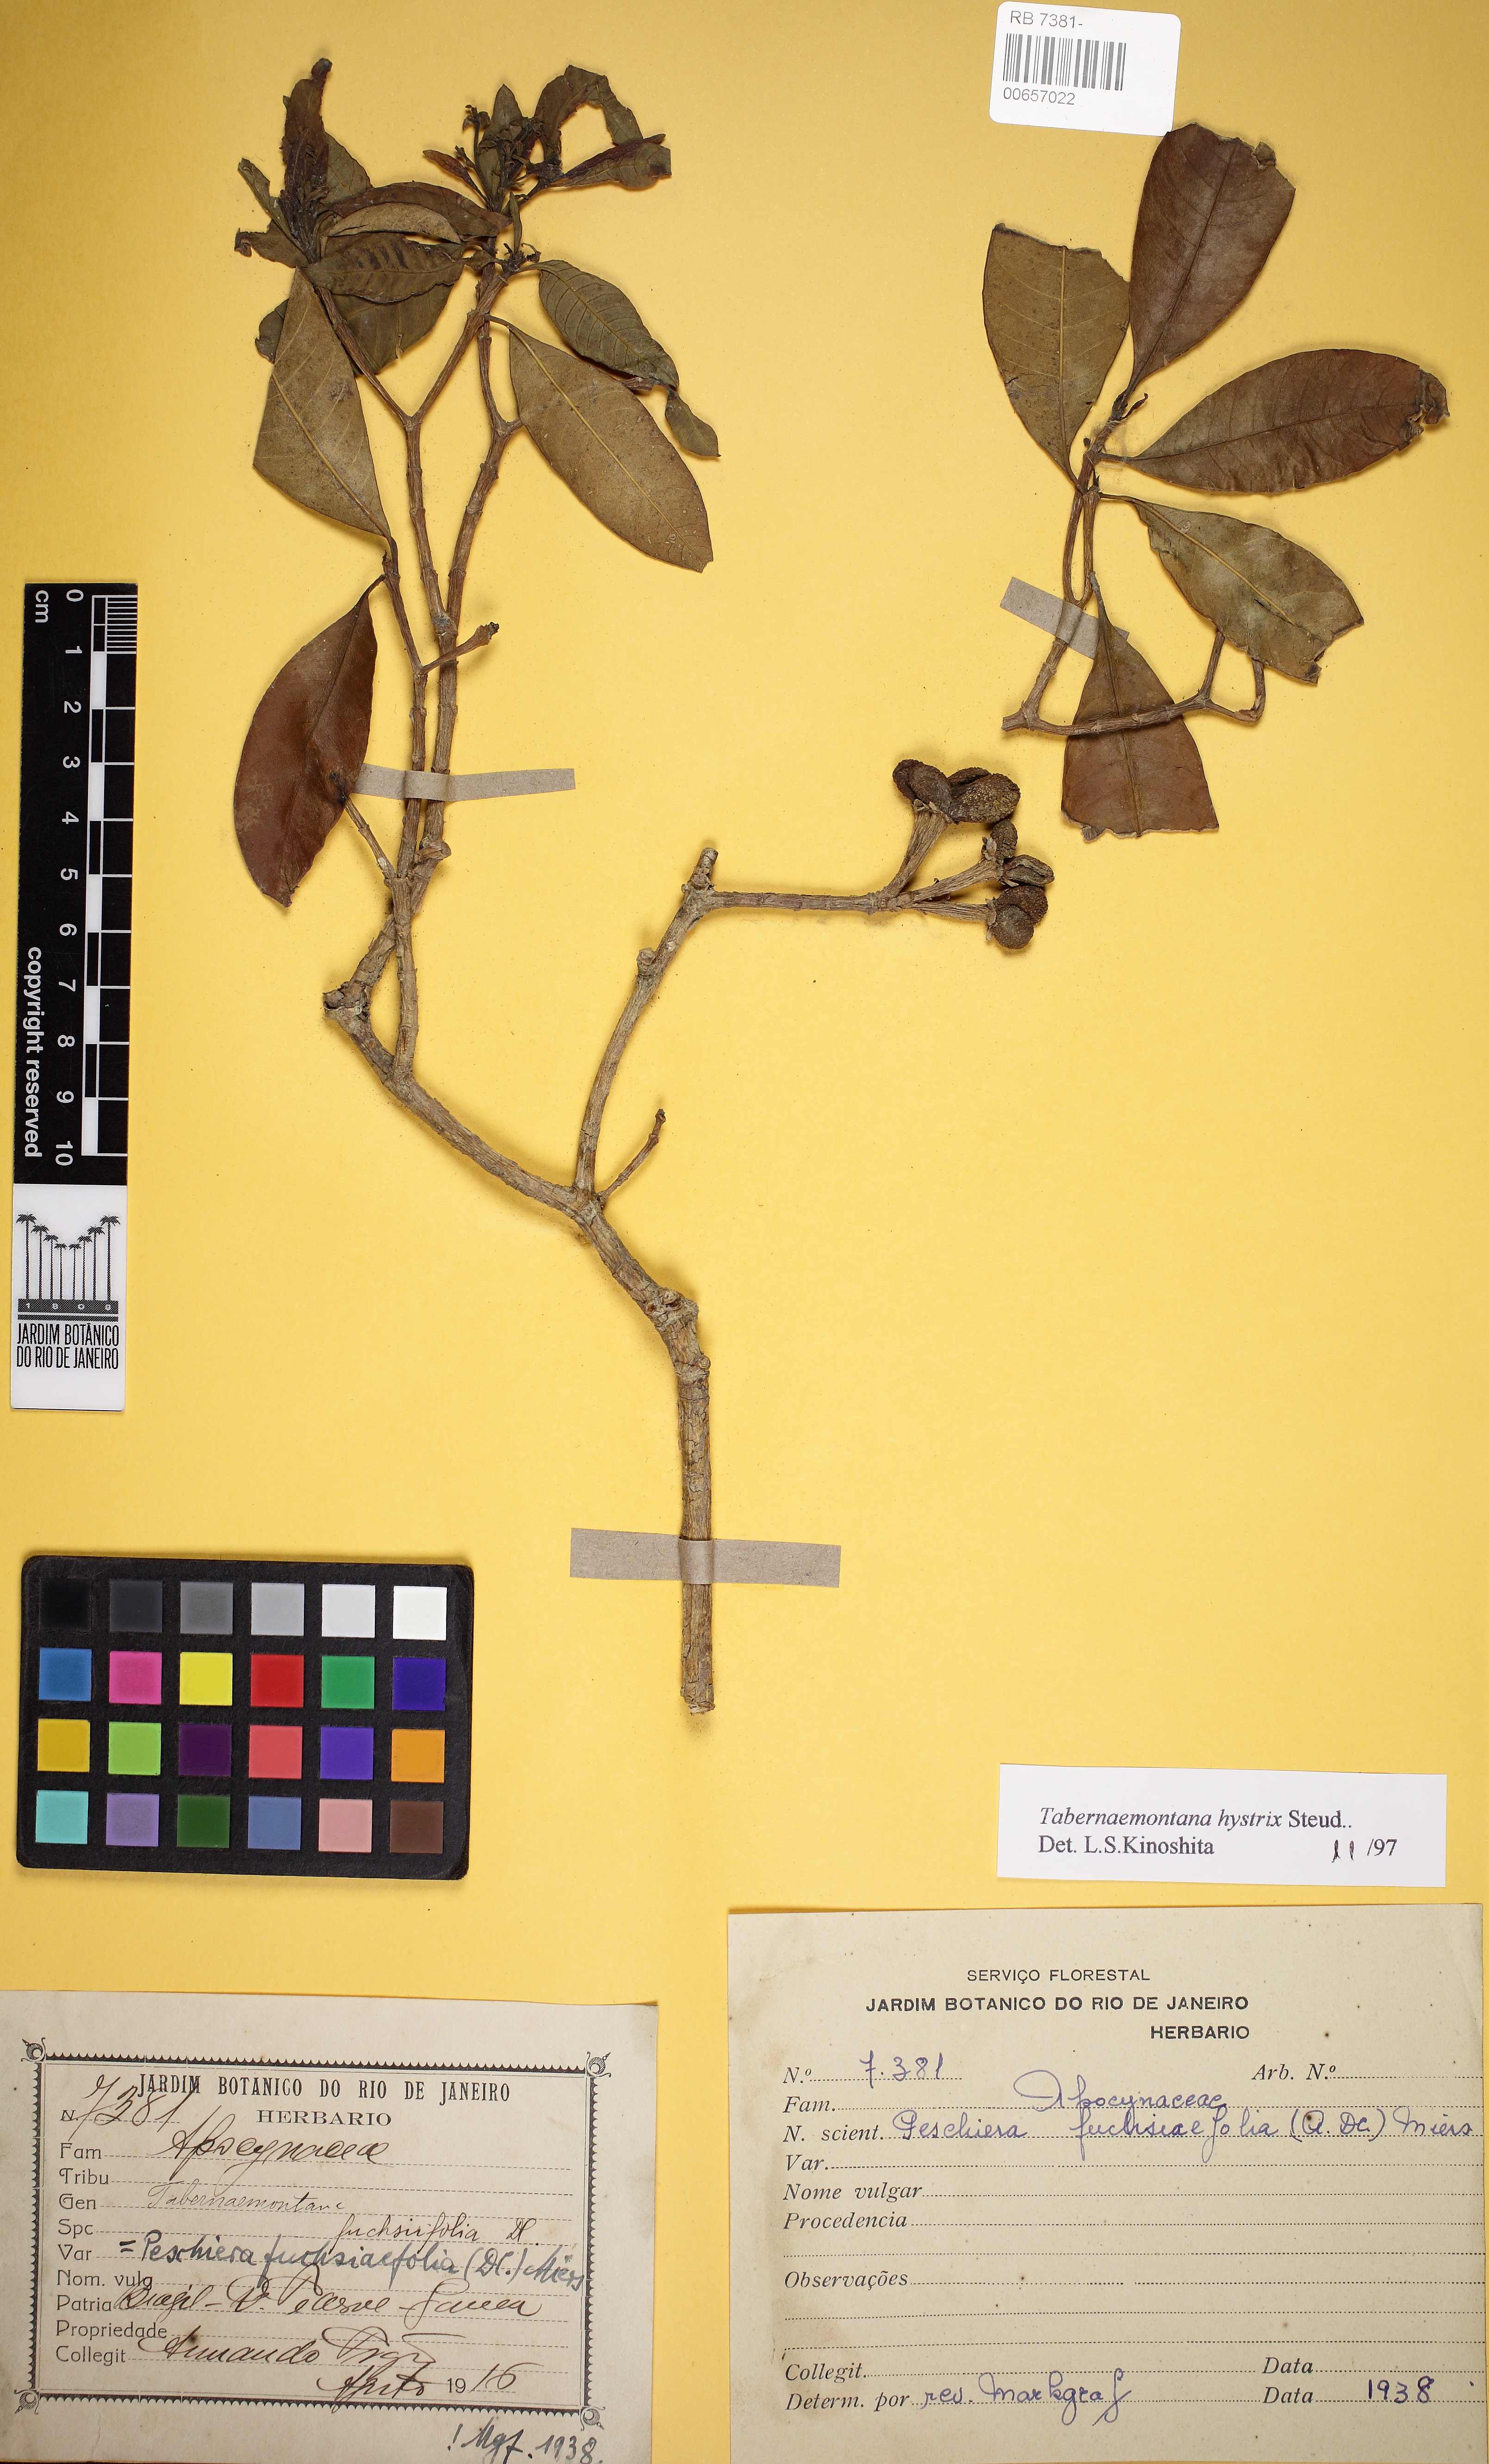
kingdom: Plantae
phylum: Tracheophyta
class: Magnoliopsida
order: Gentianales
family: Apocynaceae
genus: Tabernaemontana
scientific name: Tabernaemontana hystrix
